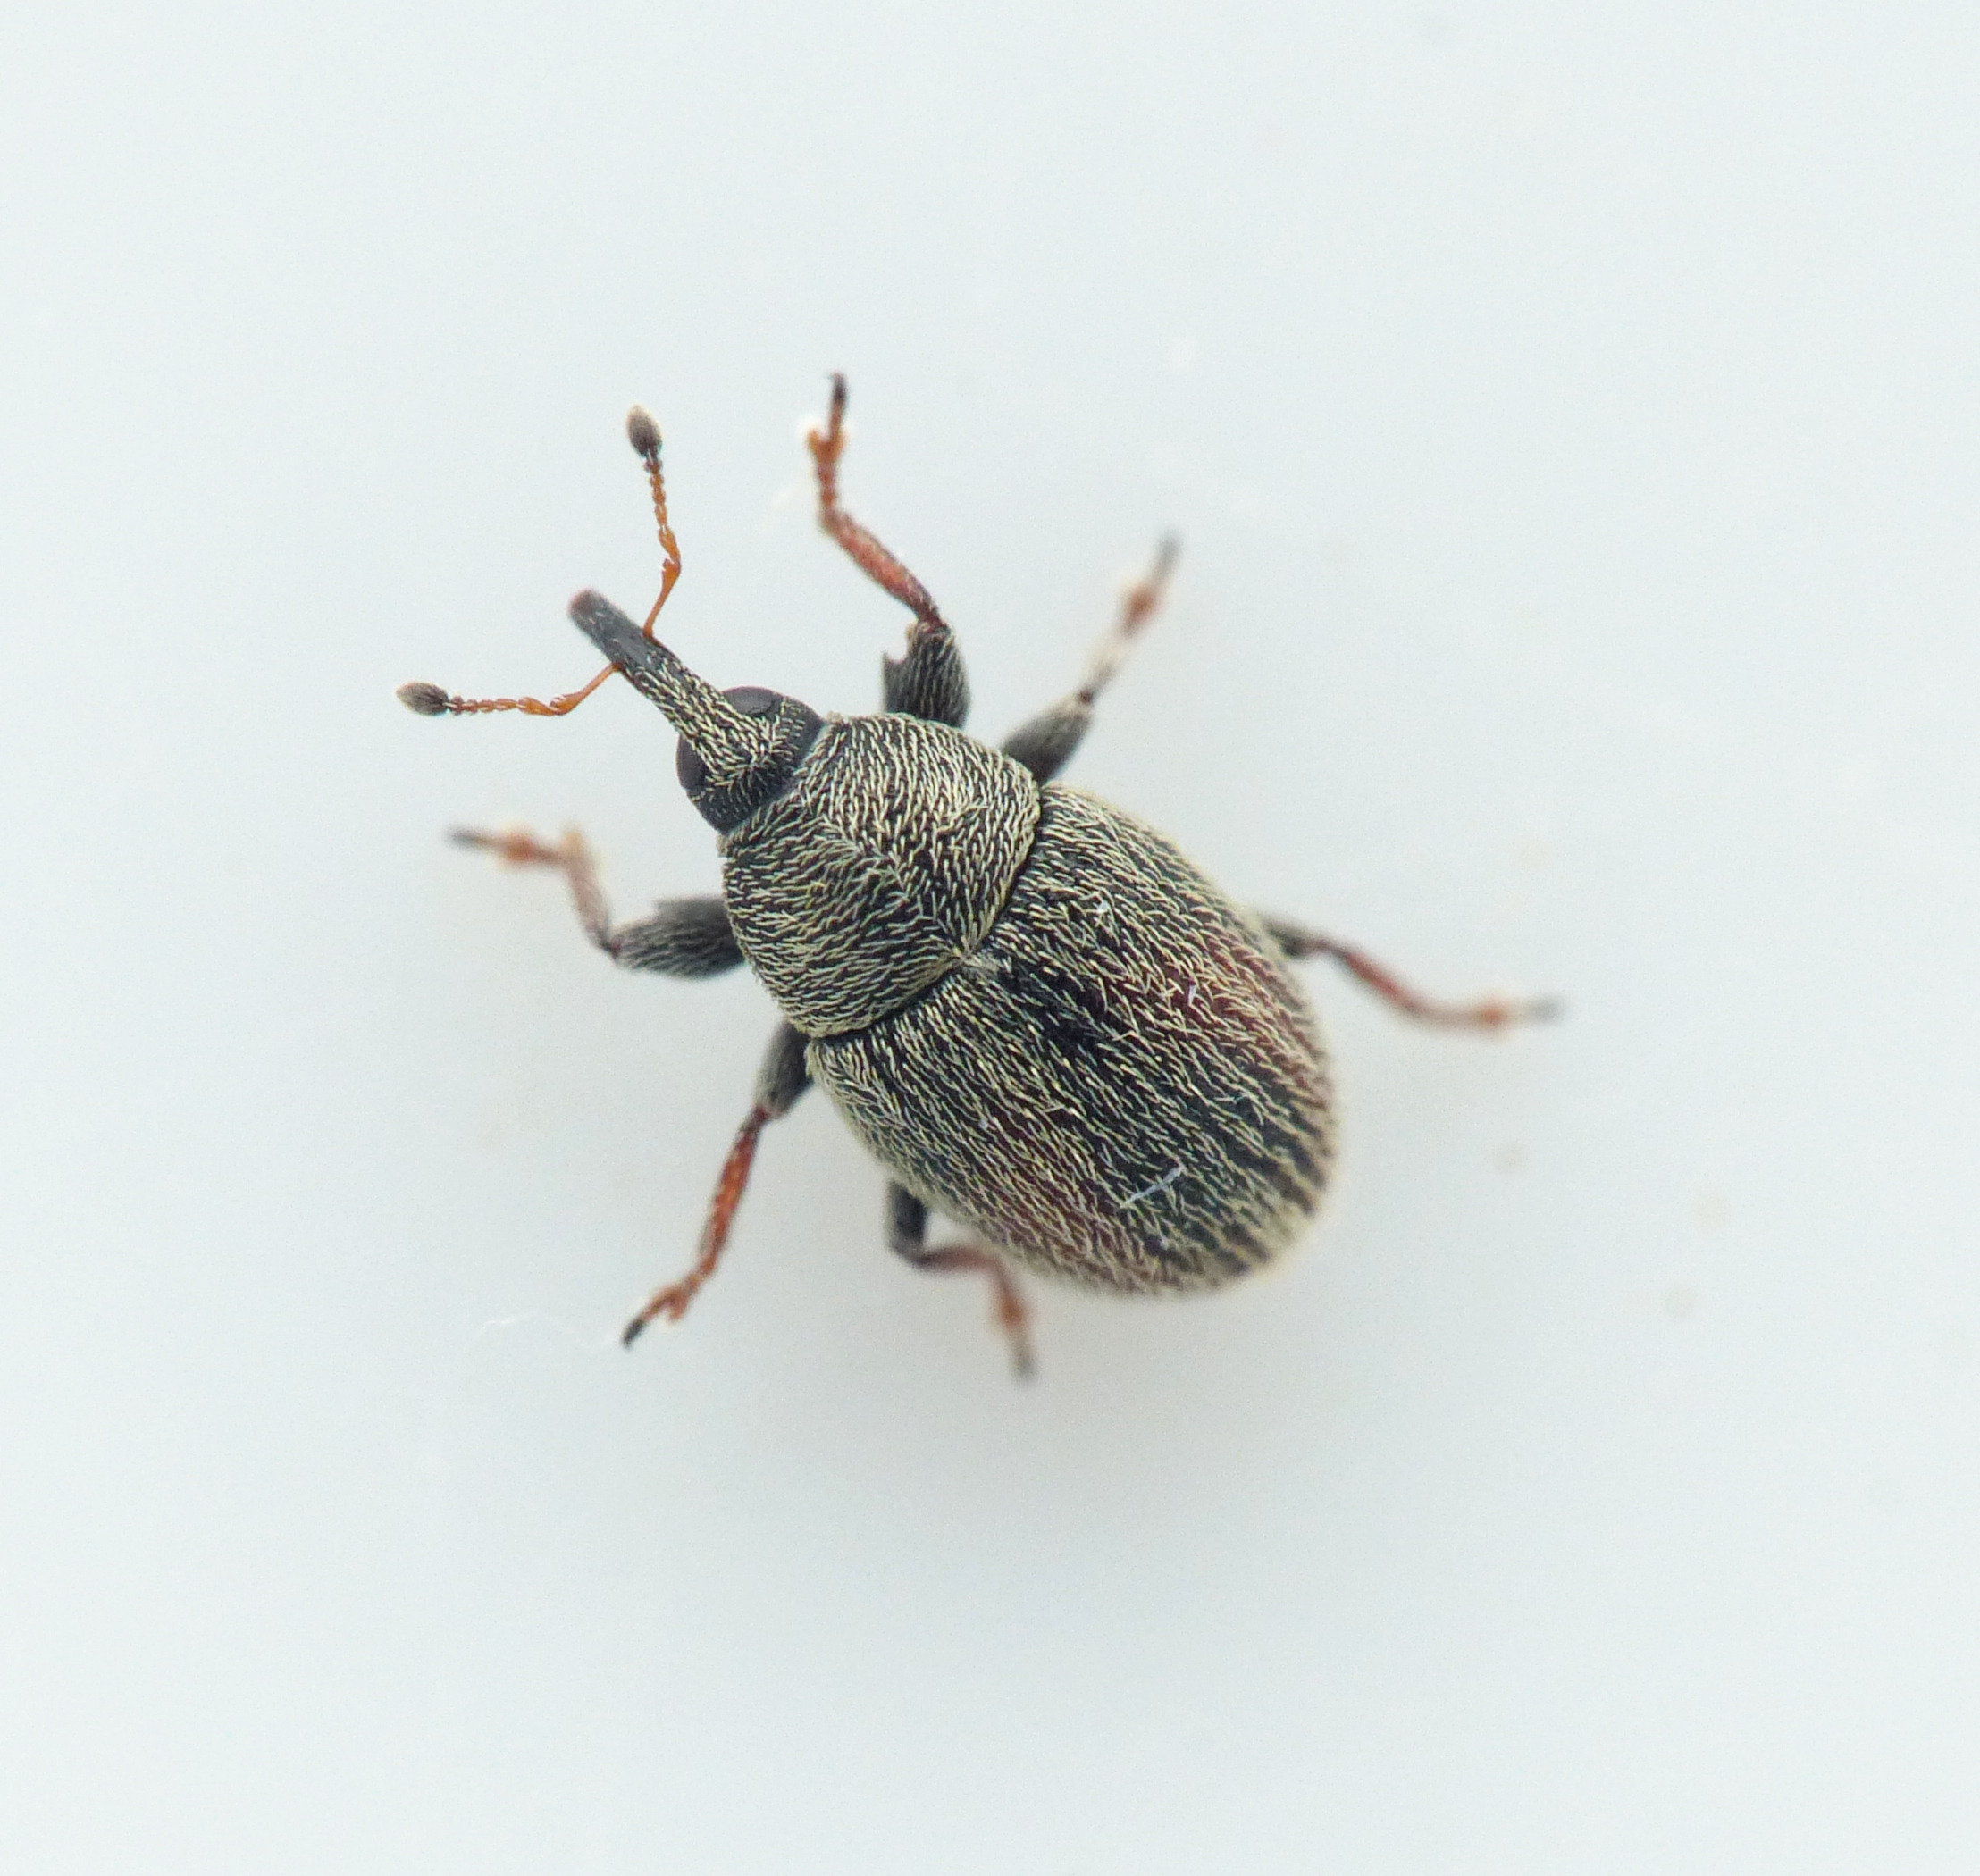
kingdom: Animalia
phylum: Arthropoda
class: Insecta
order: Coleoptera
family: Curculionidae
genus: Mecinus
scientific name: Mecinus pascuorum
